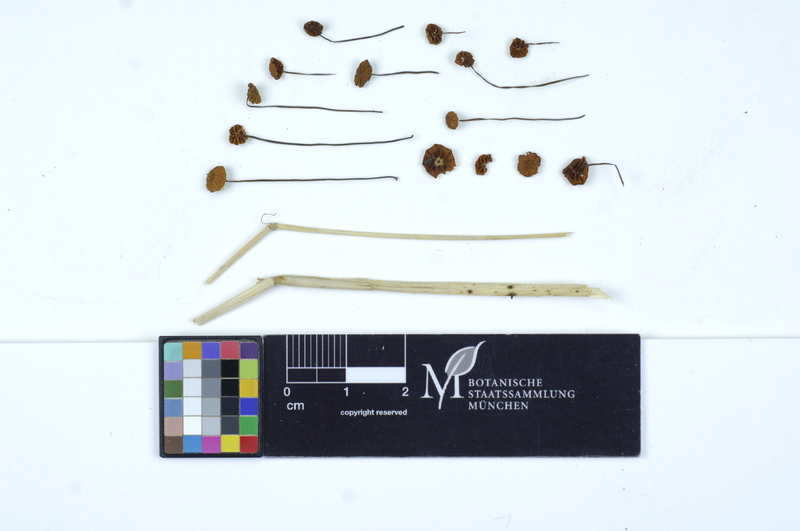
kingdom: Fungi
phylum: Basidiomycota
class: Agaricomycetes
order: Agaricales
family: Marasmiaceae
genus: Marasmius
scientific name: Marasmius graminum
